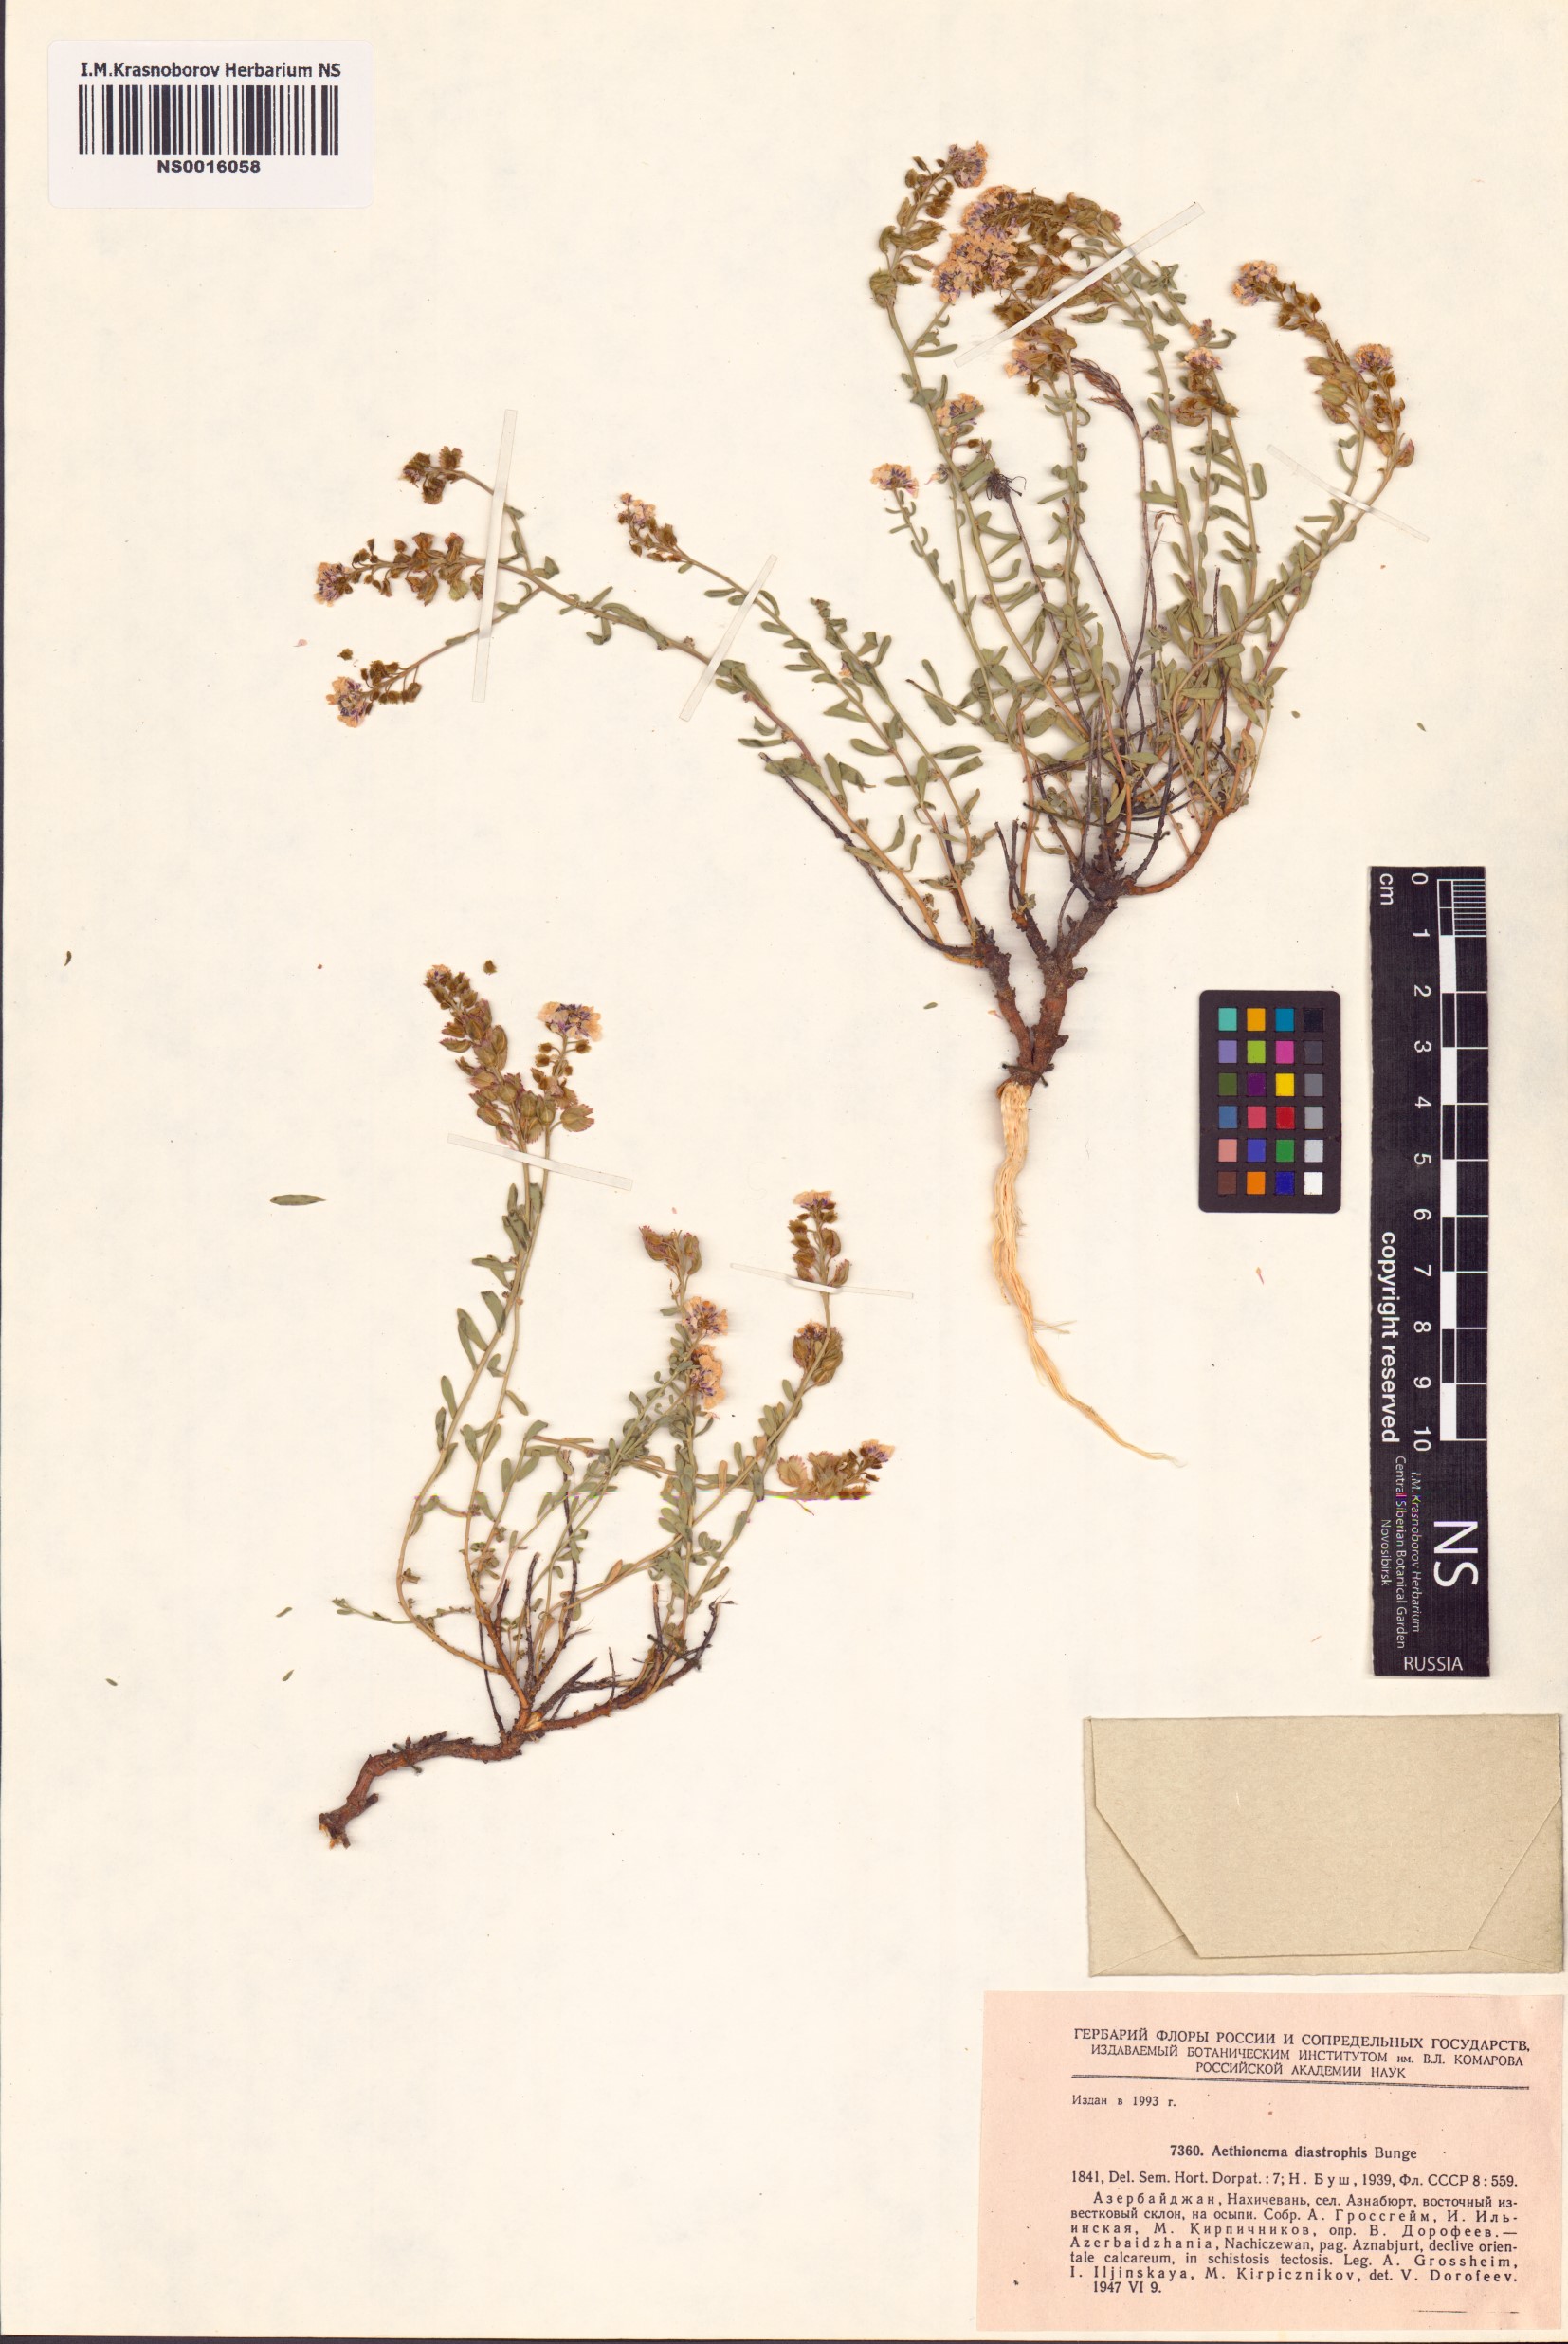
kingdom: Plantae
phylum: Tracheophyta
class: Magnoliopsida
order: Brassicales
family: Brassicaceae
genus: Aethionema
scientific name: Aethionema diastrophis
